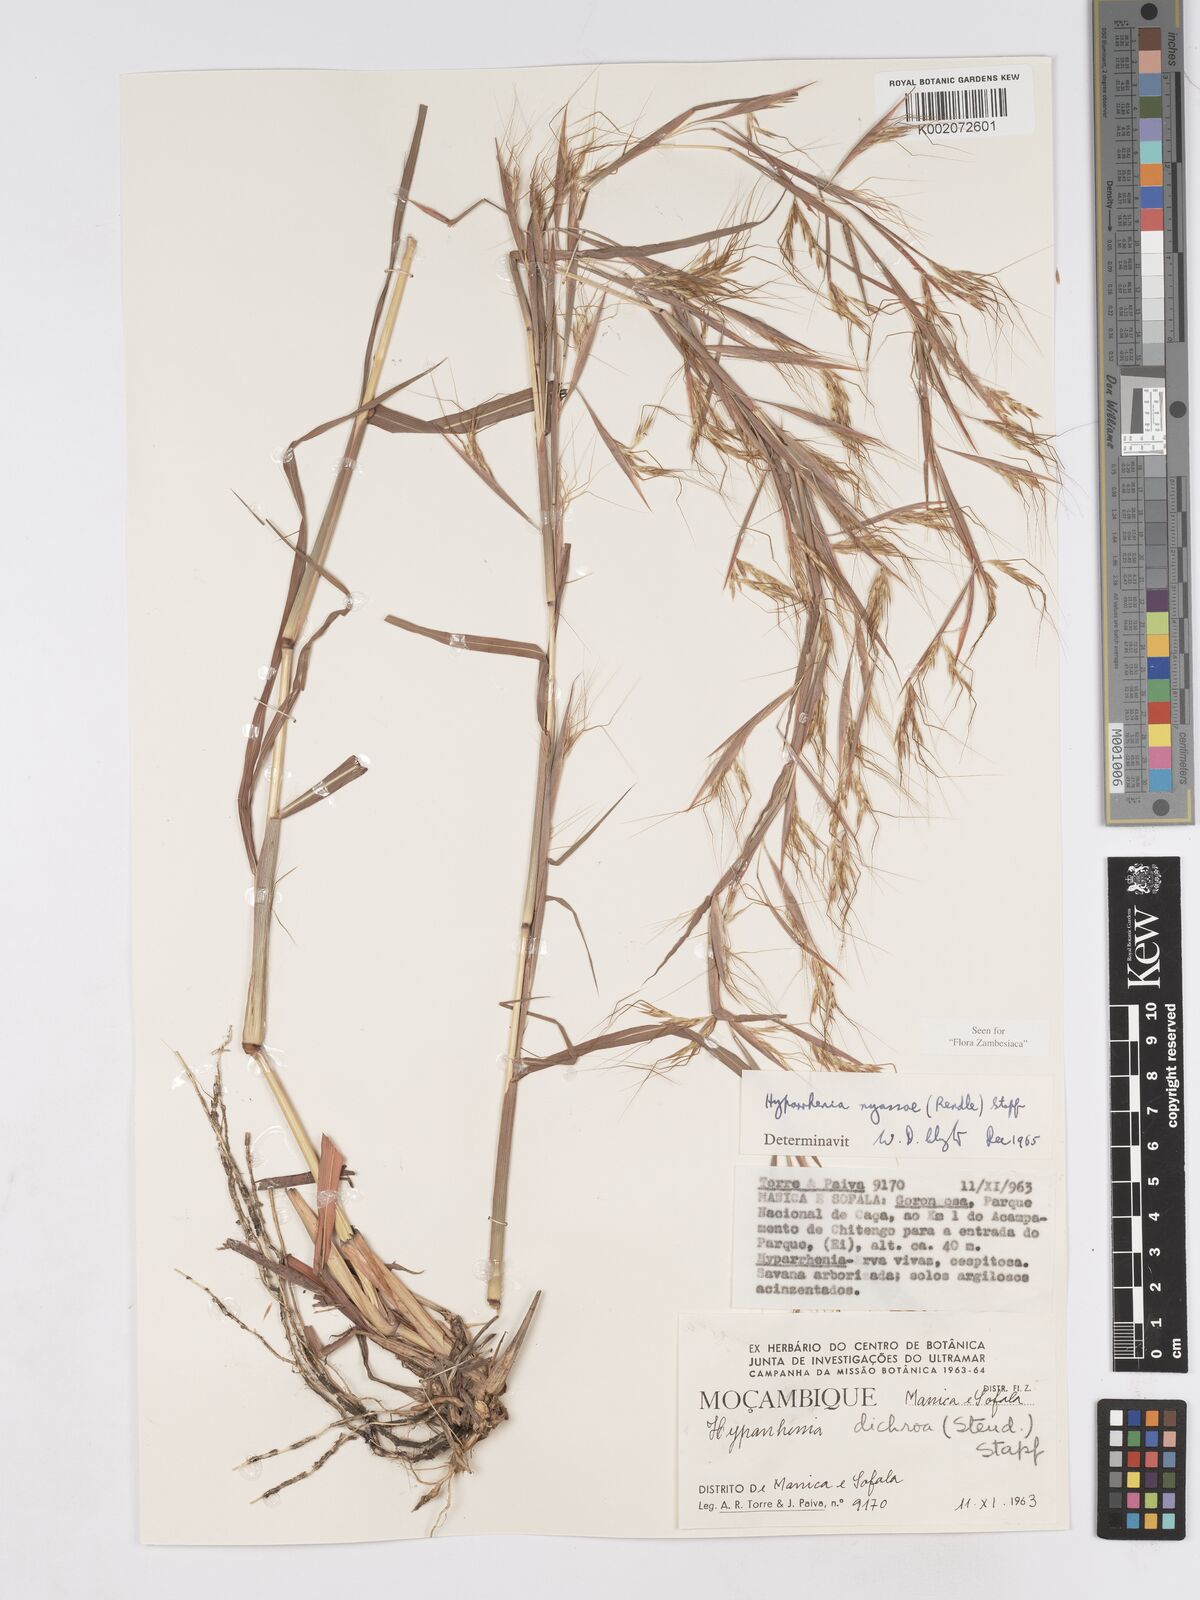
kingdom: Plantae
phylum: Tracheophyta
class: Liliopsida
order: Poales
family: Poaceae
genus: Hyparrhenia
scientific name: Hyparrhenia nyassae
